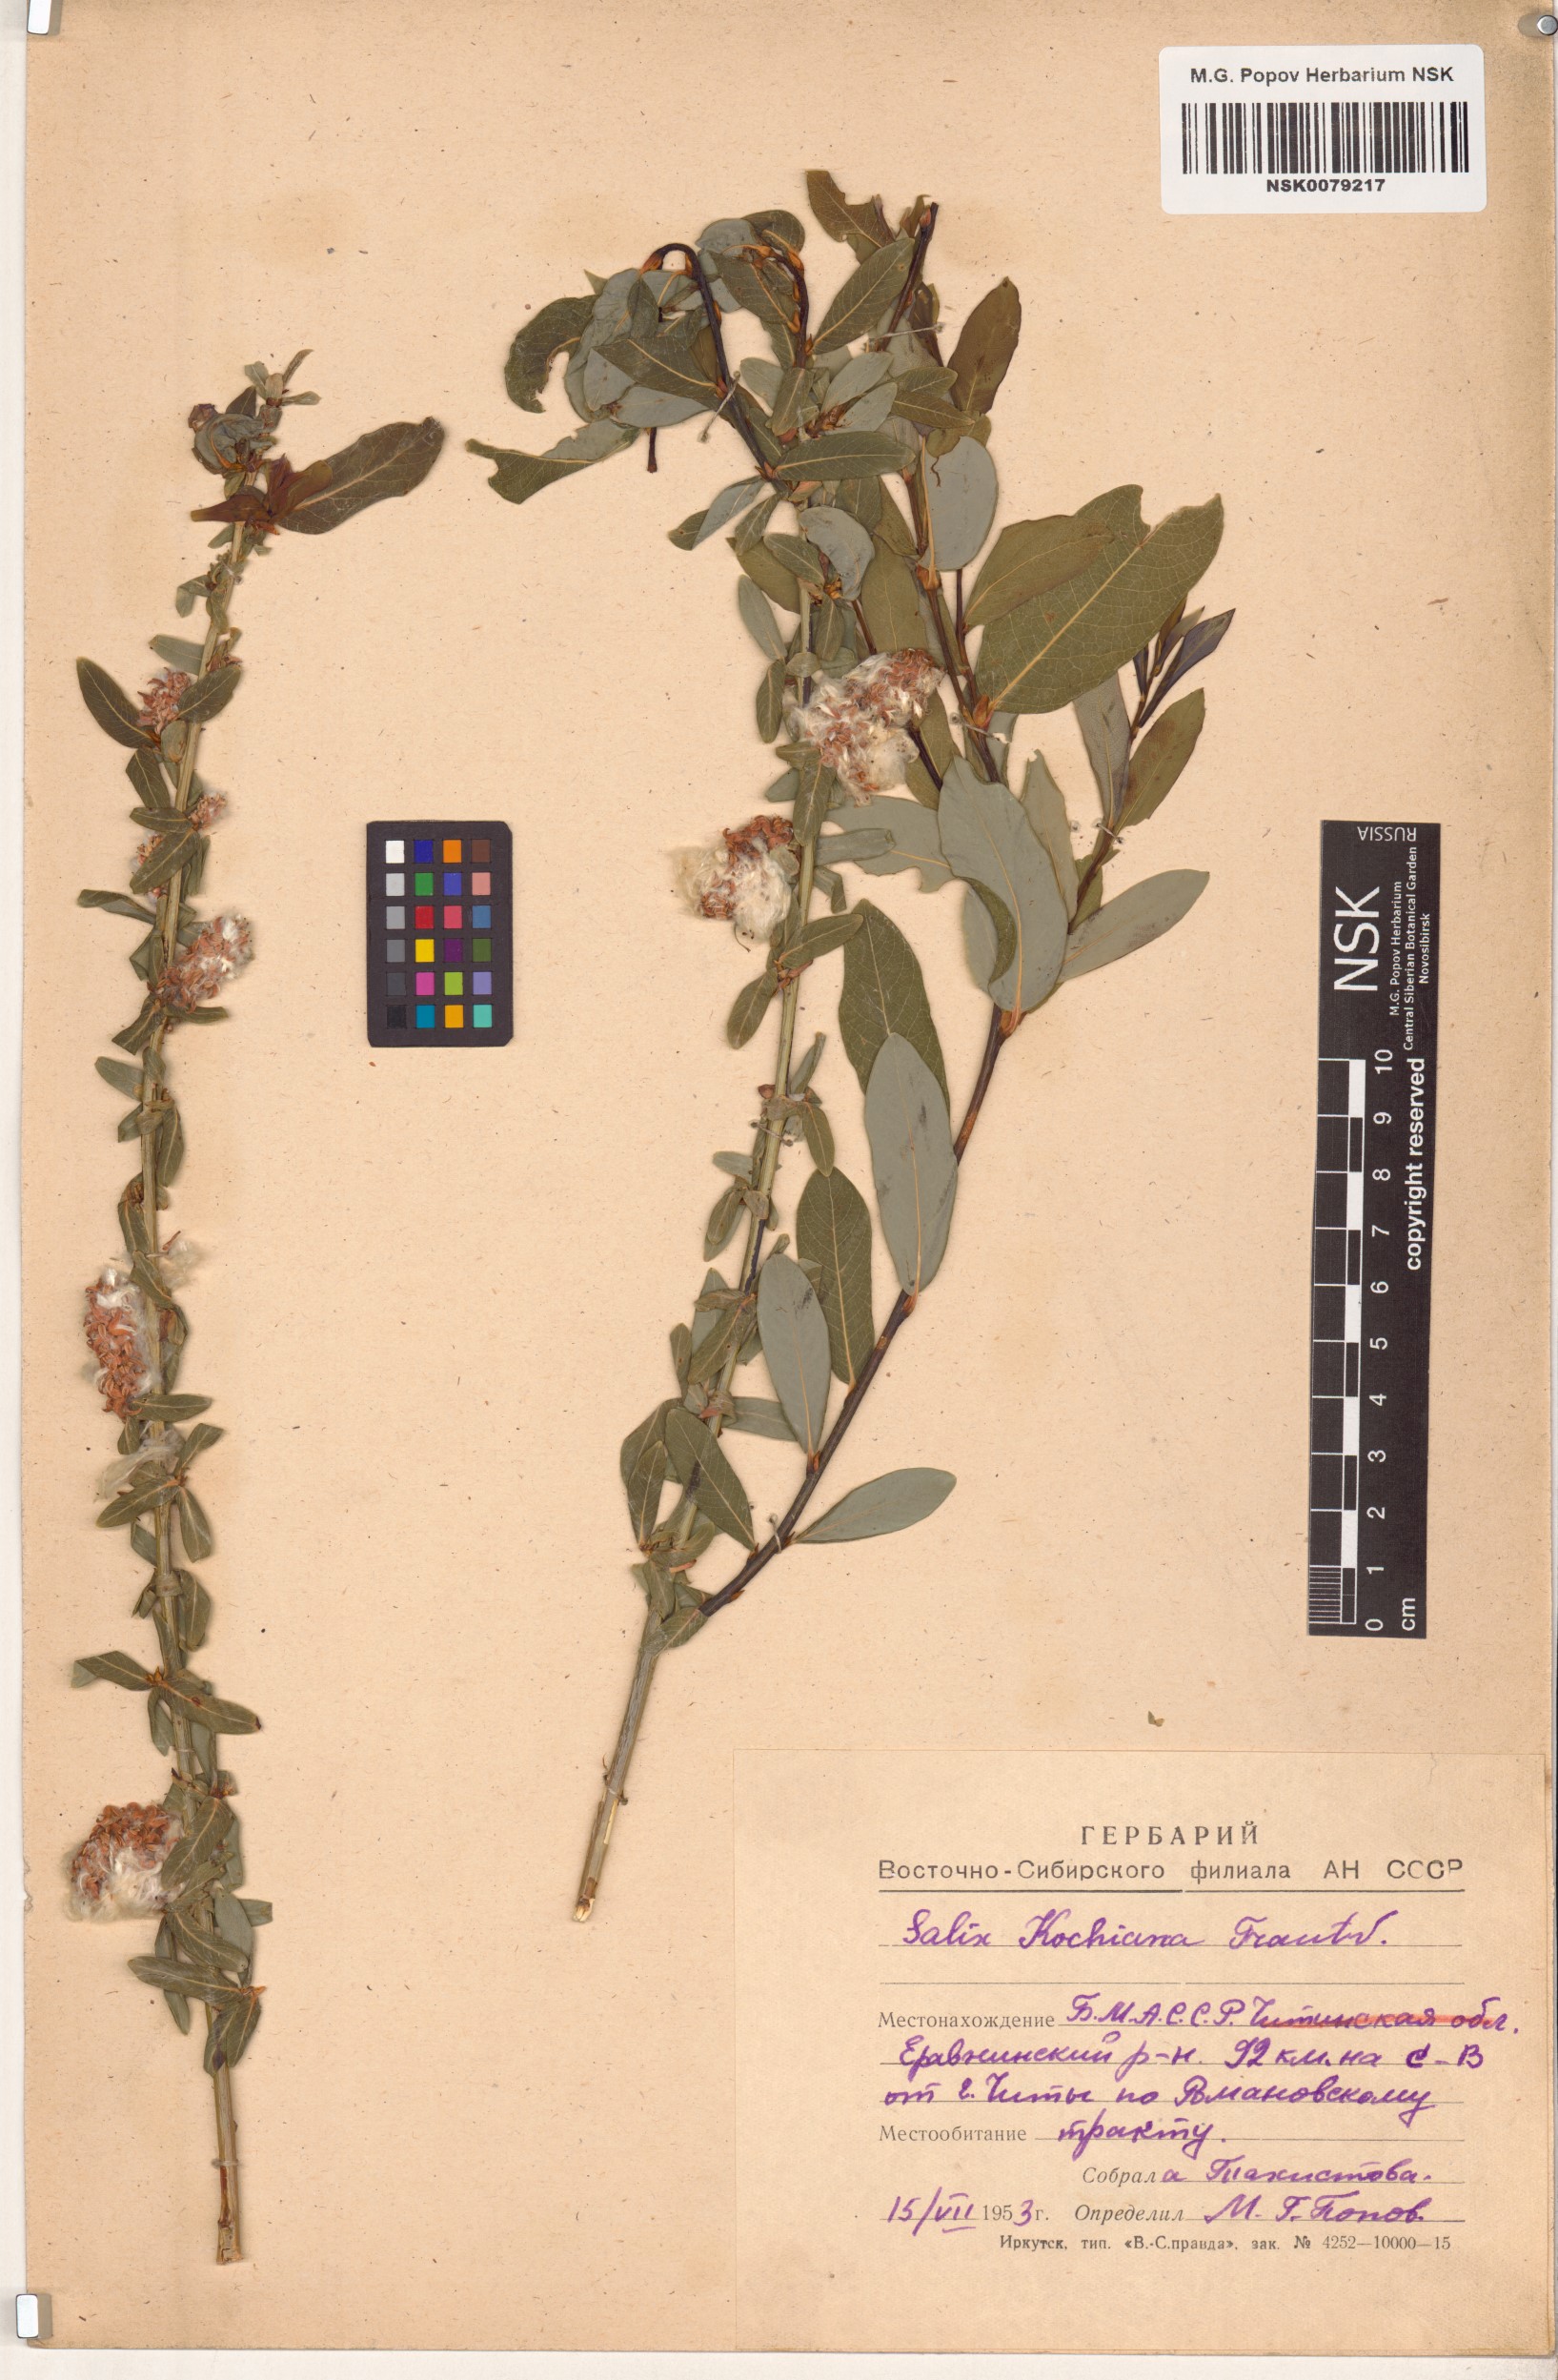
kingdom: Plantae
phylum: Tracheophyta
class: Magnoliopsida
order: Malpighiales
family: Salicaceae
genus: Salix
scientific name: Salix kochiana
